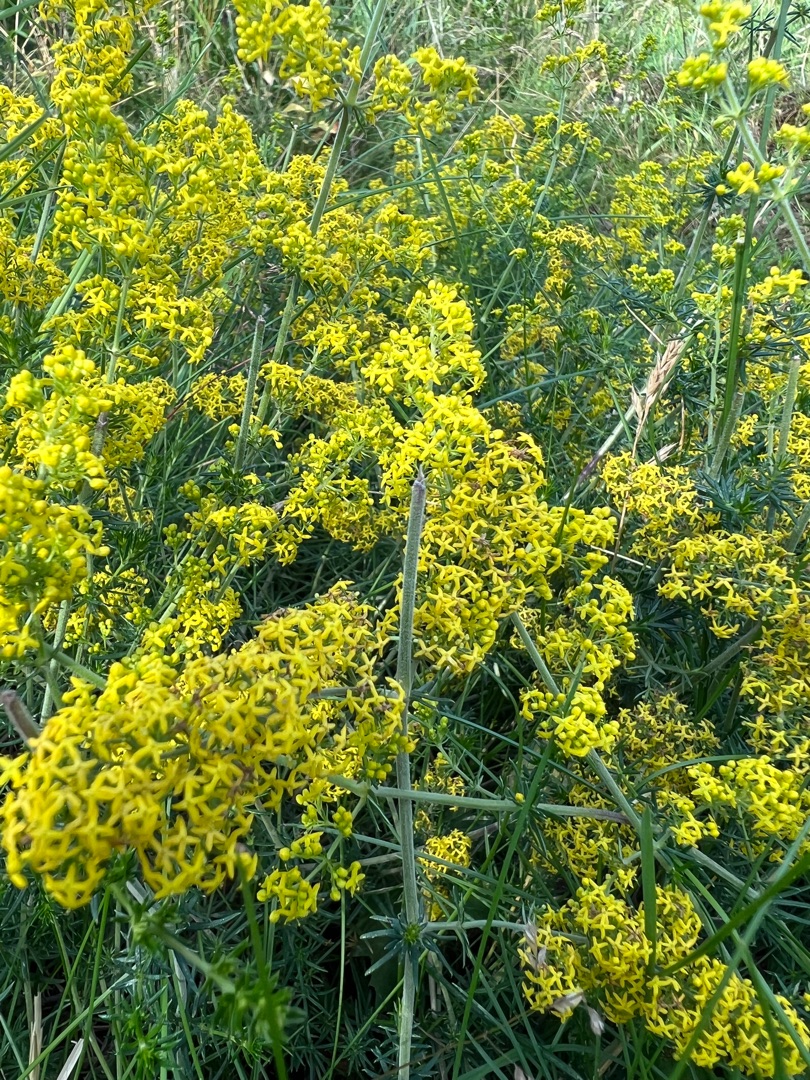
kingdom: Plantae
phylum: Tracheophyta
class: Magnoliopsida
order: Gentianales
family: Rubiaceae
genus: Galium
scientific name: Galium verum
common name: Gul snerre
